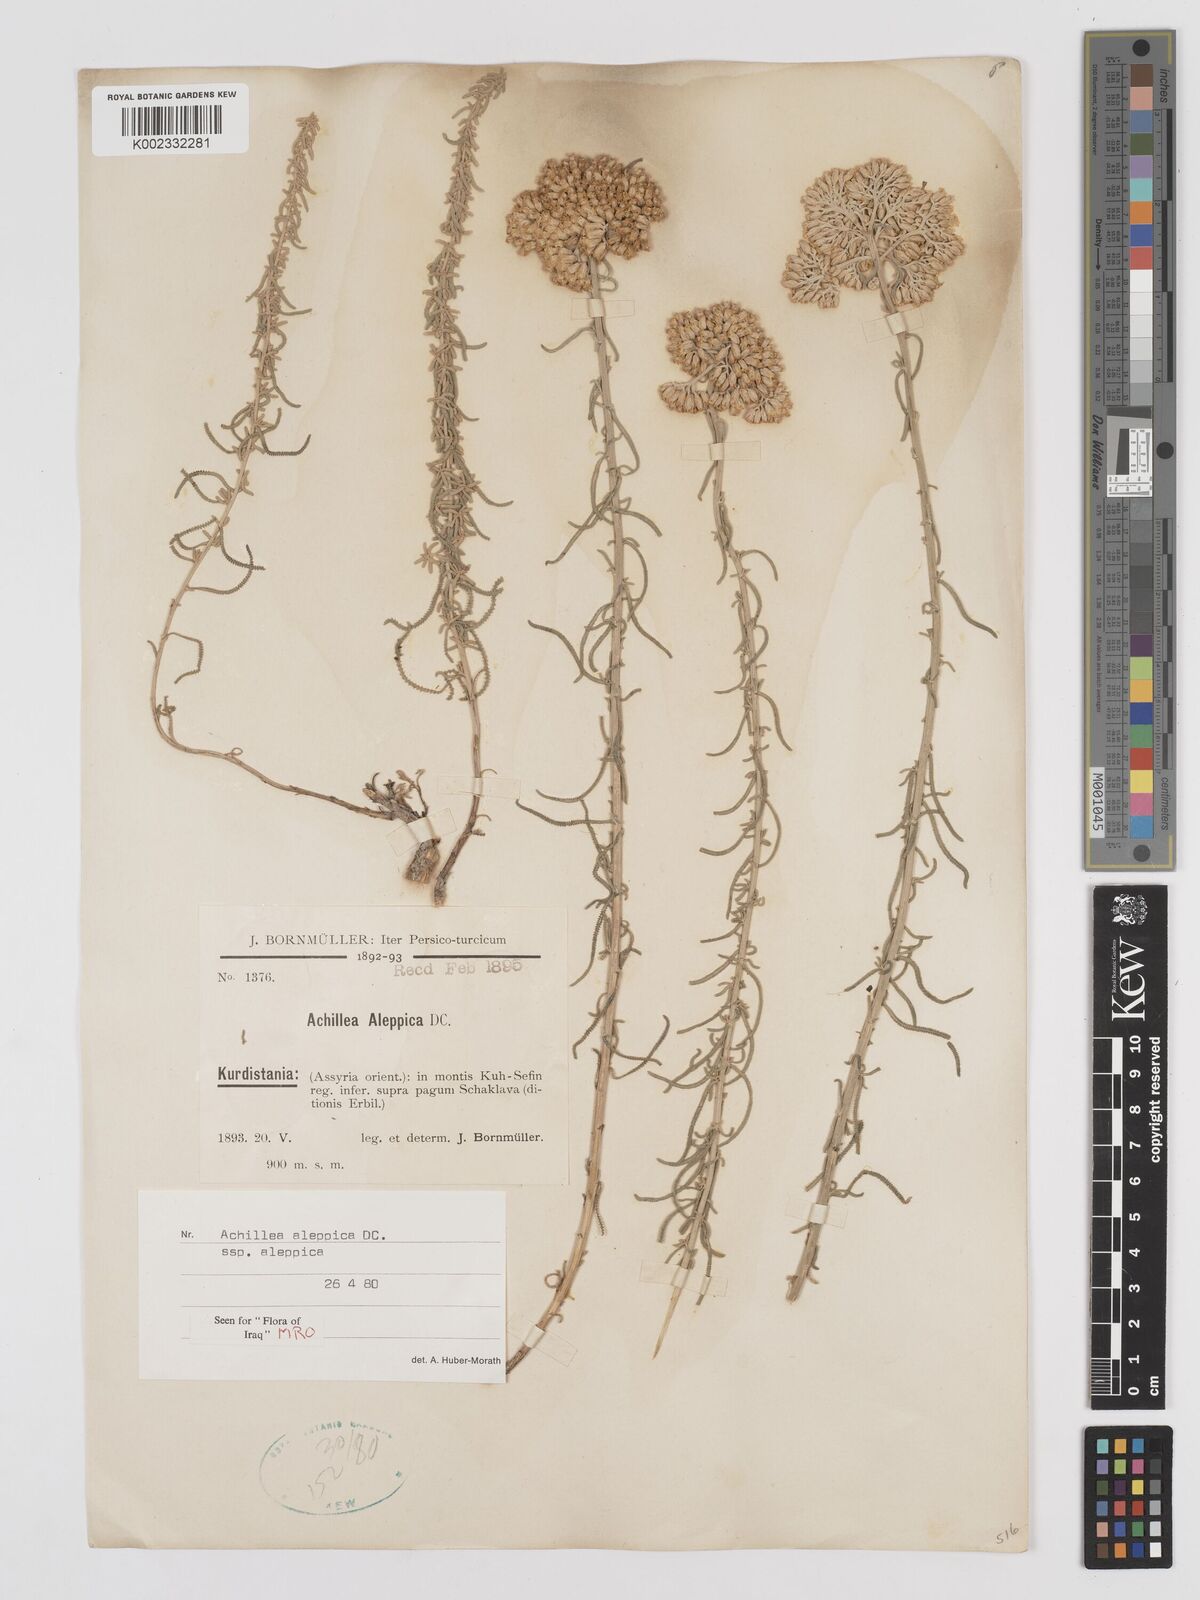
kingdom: Plantae
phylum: Tracheophyta
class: Magnoliopsida
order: Asterales
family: Asteraceae
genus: Achillea
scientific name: Achillea aleppica
